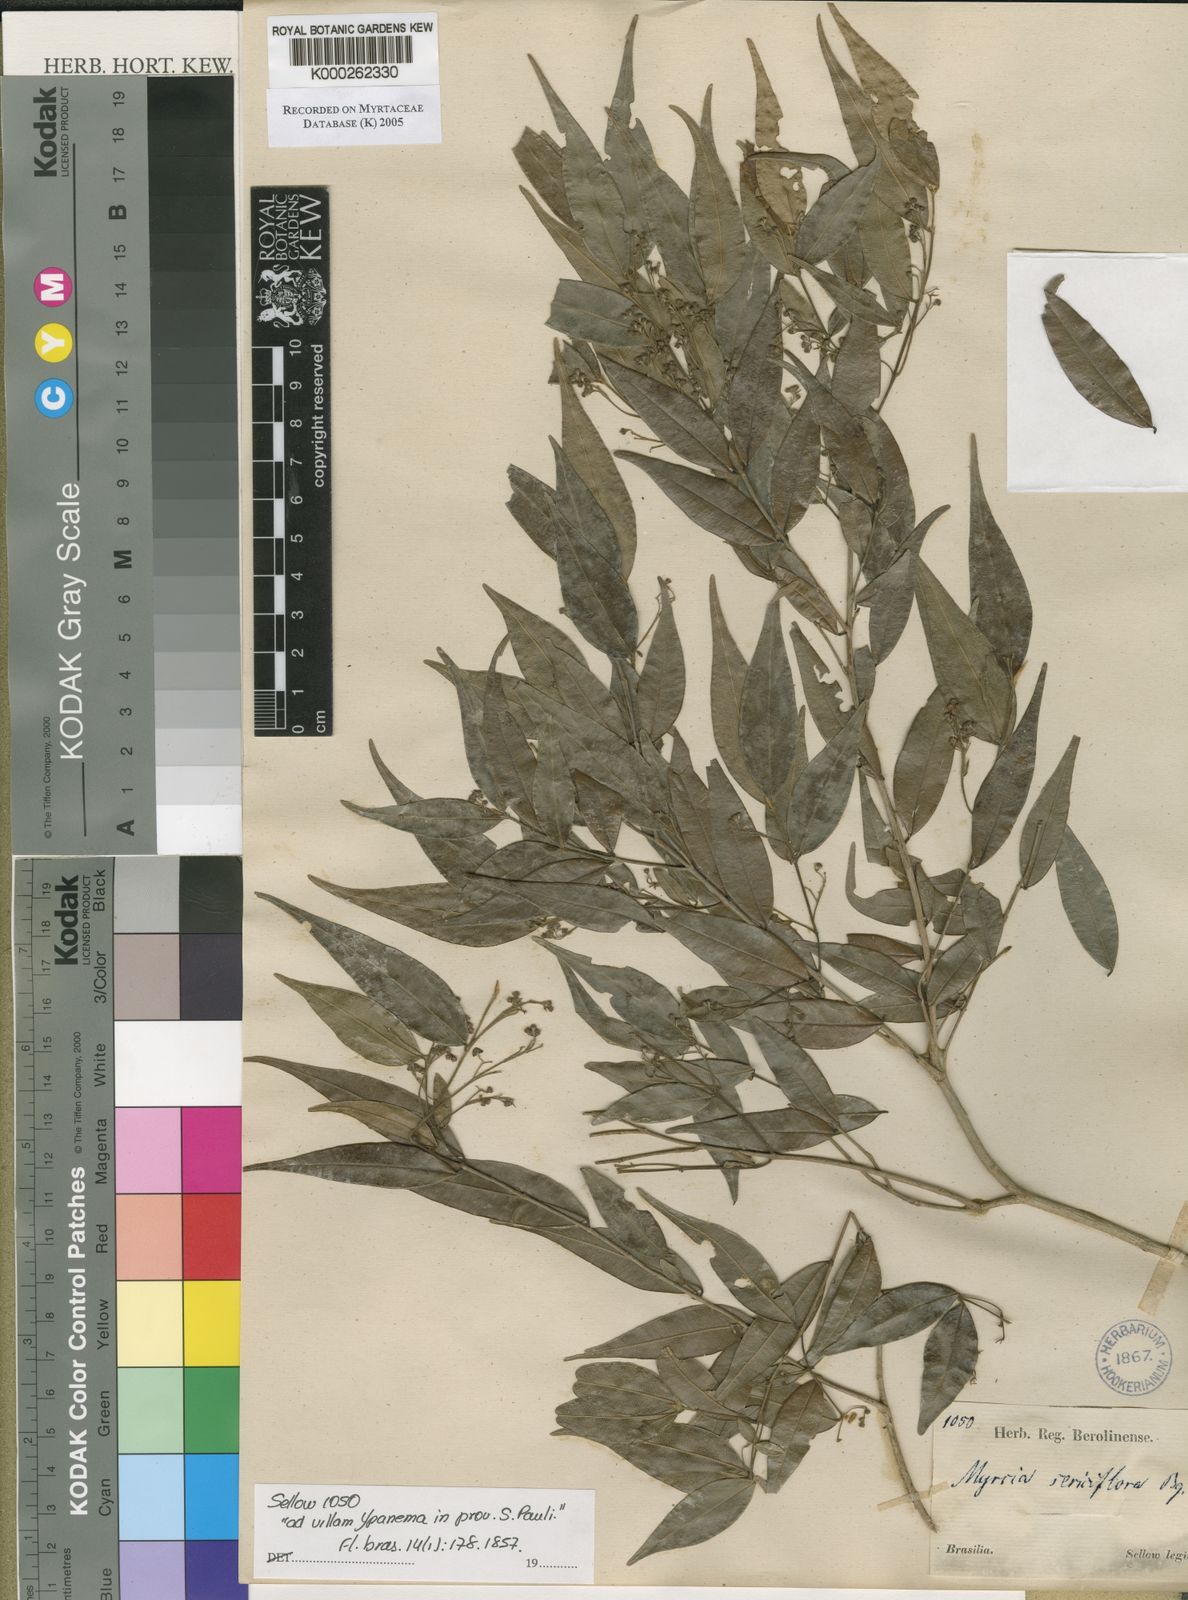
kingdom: Plantae
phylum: Tracheophyta
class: Magnoliopsida
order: Myrtales
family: Myrtaceae
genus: Myrcia
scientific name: Myrcia splendens
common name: Surinam cherry
